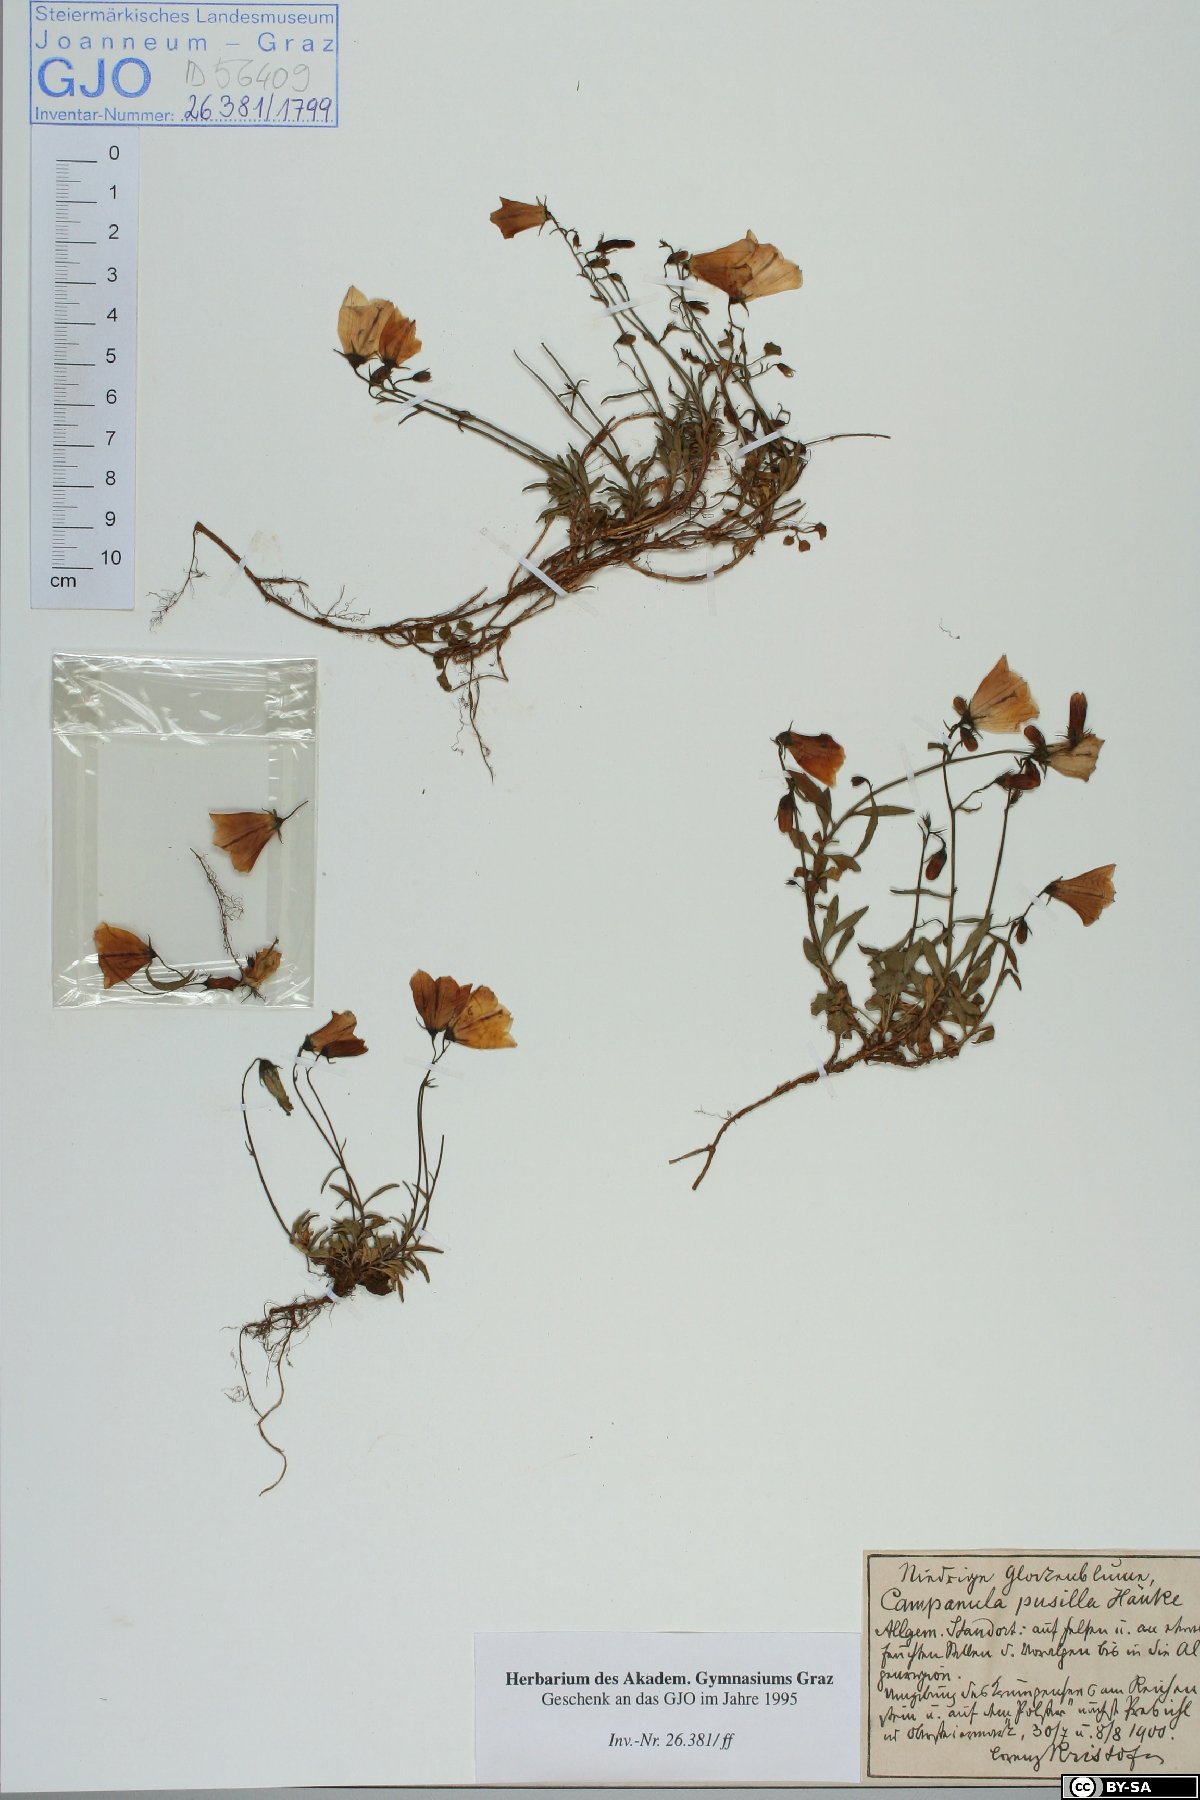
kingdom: Plantae
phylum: Tracheophyta
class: Magnoliopsida
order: Asterales
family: Campanulaceae
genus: Campanula
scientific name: Campanula cochleariifolia
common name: Fairies'-thimbles
